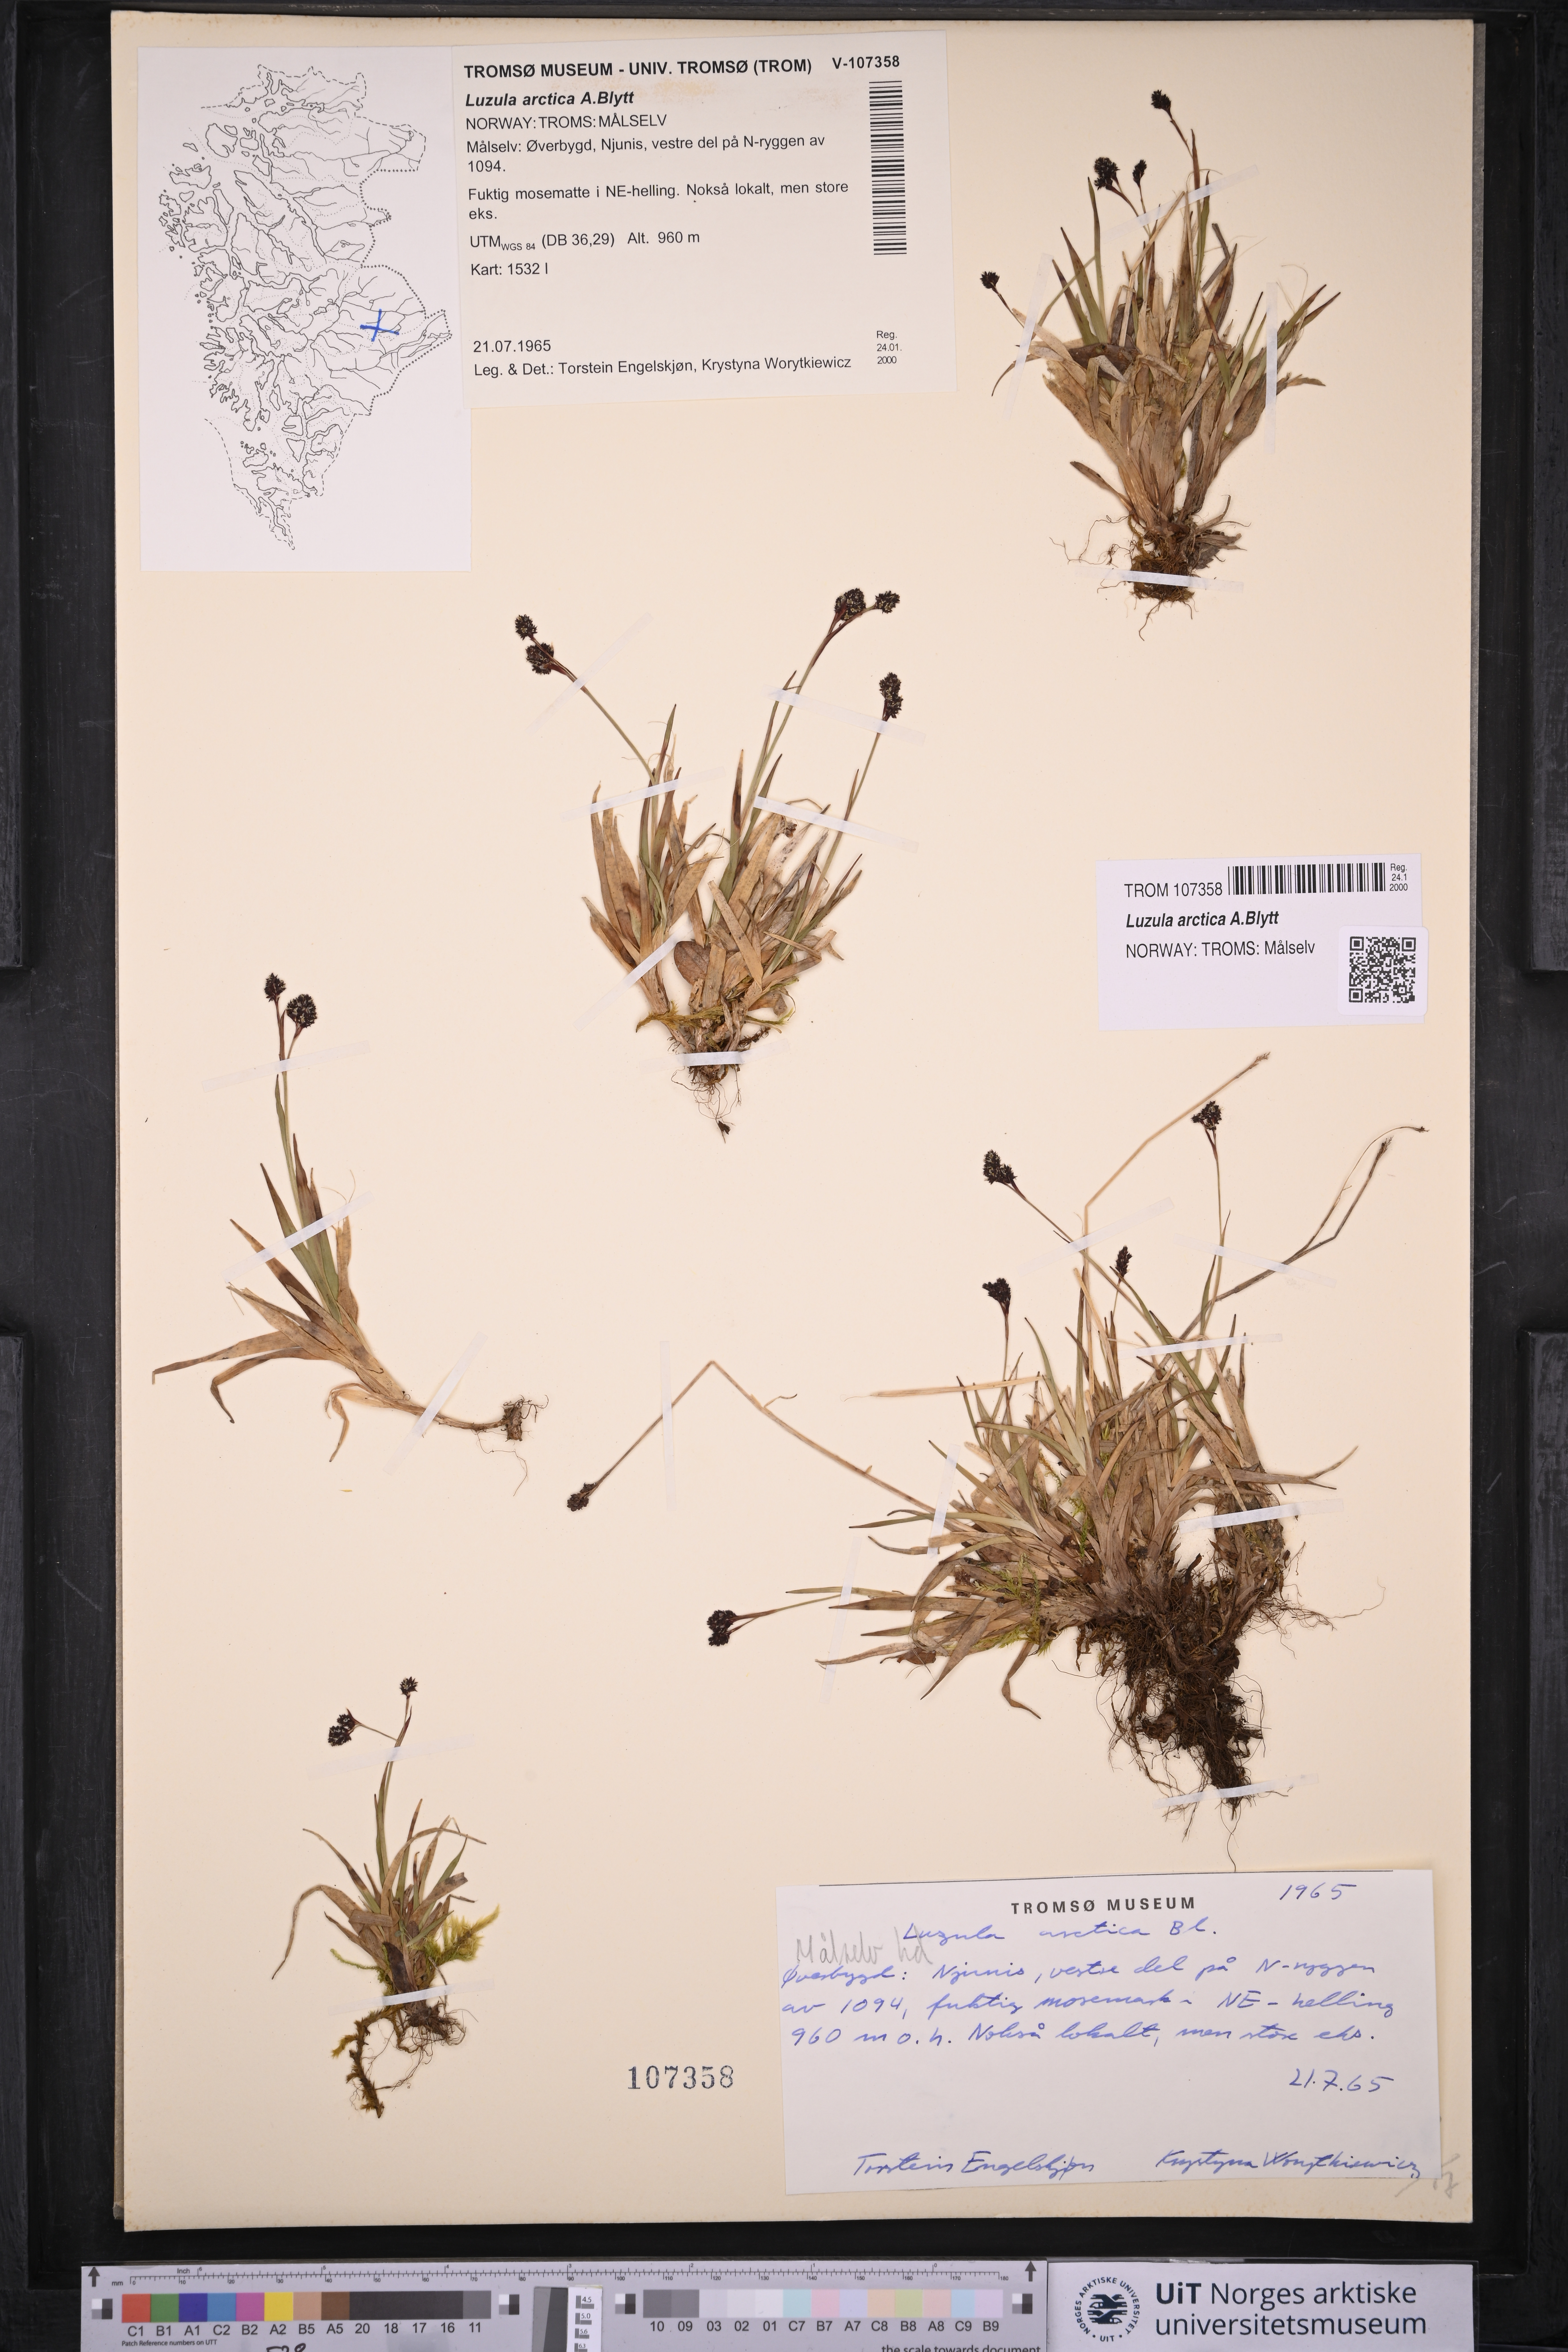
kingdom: Plantae
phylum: Tracheophyta
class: Liliopsida
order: Poales
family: Juncaceae
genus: Luzula
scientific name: Luzula nivalis
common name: Arctic woodrush
